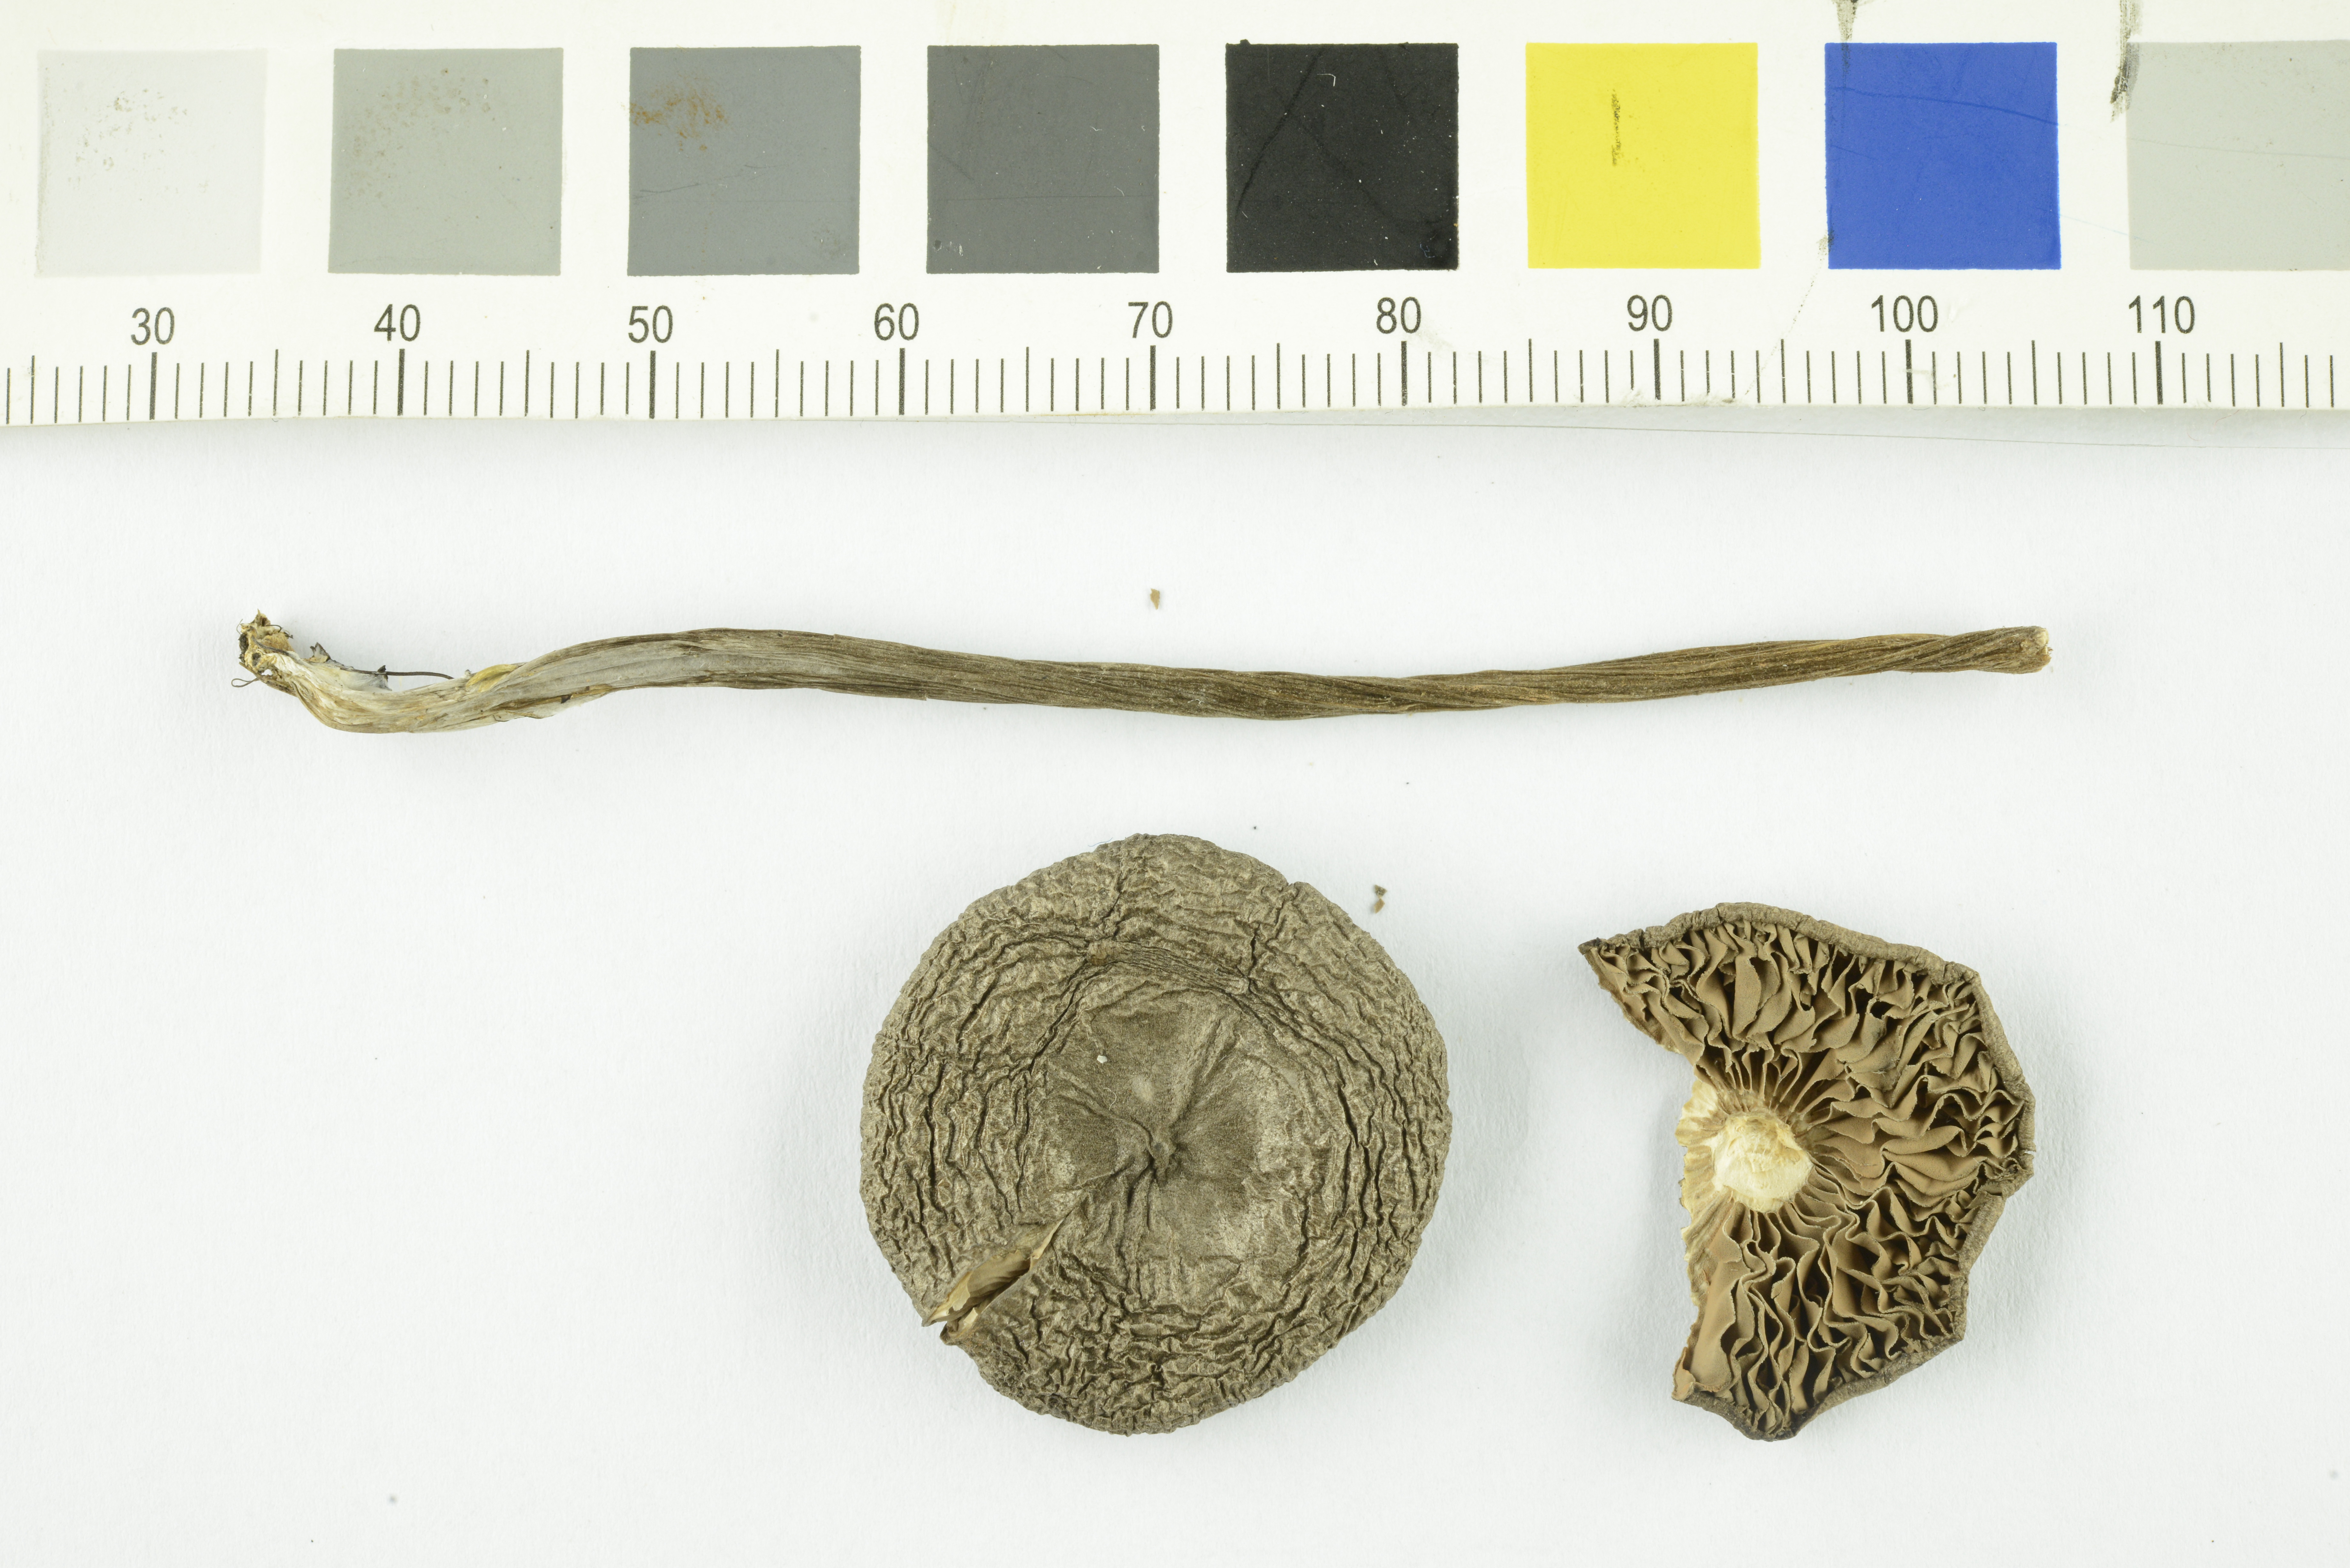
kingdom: Fungi
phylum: Basidiomycota
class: Agaricomycetes
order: Agaricales
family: Entolomataceae
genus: Entoloma
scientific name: Entoloma jubatum
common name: Sepia pinkgill
